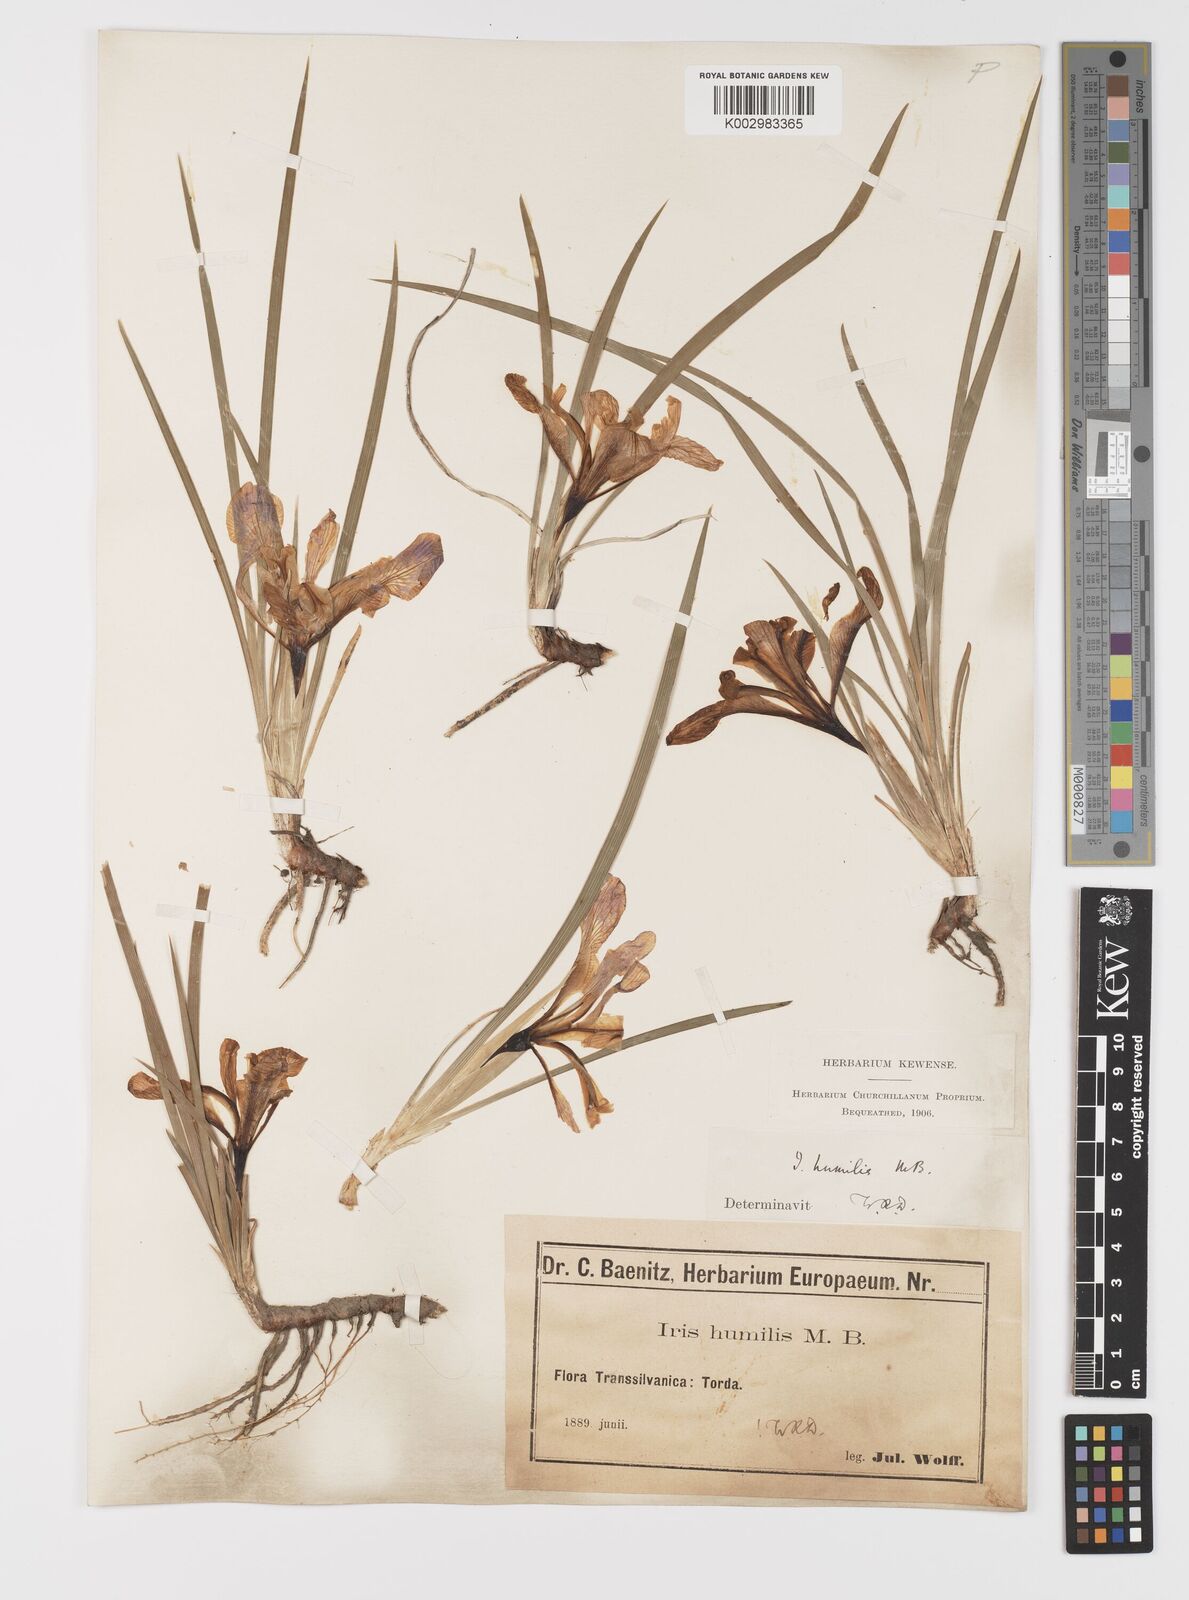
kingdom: Plantae
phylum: Tracheophyta
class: Liliopsida
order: Asparagales
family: Iridaceae
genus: Iris
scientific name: Iris pontica
